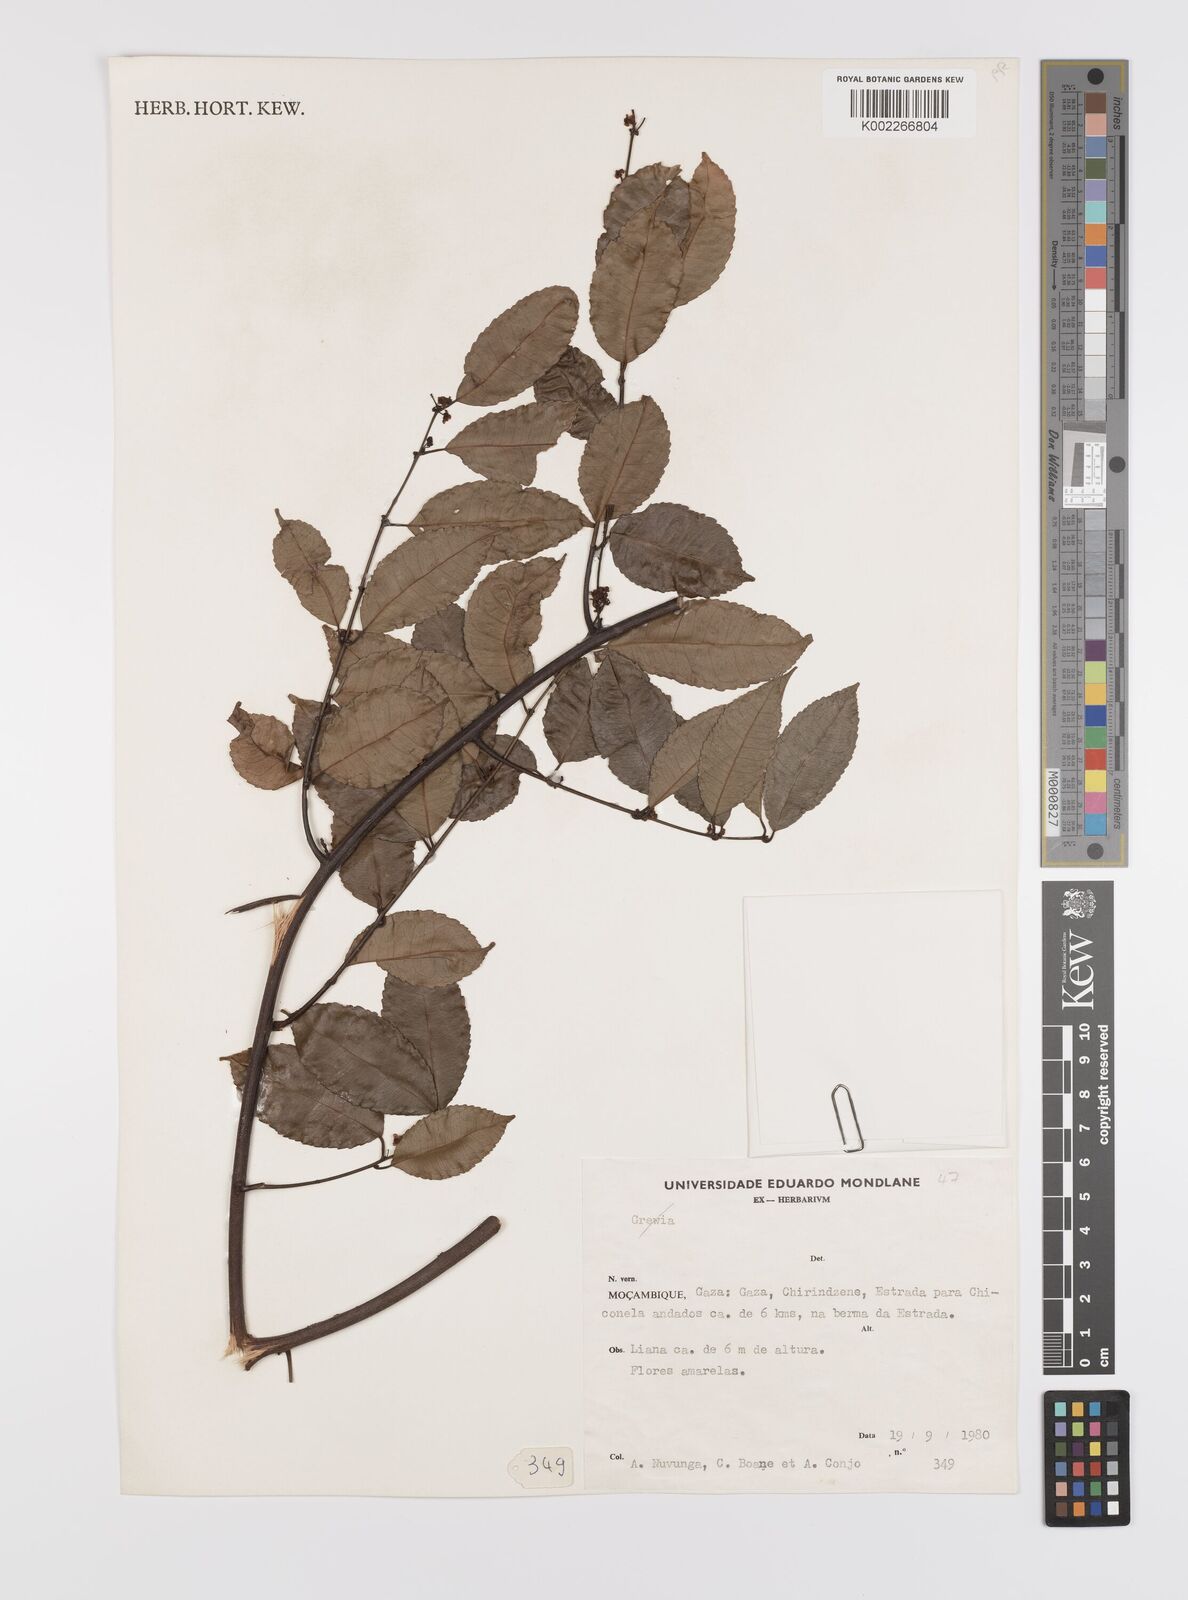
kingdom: Plantae
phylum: Tracheophyta
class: Magnoliopsida
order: Celastrales
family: Celastraceae
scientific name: Celastraceae
